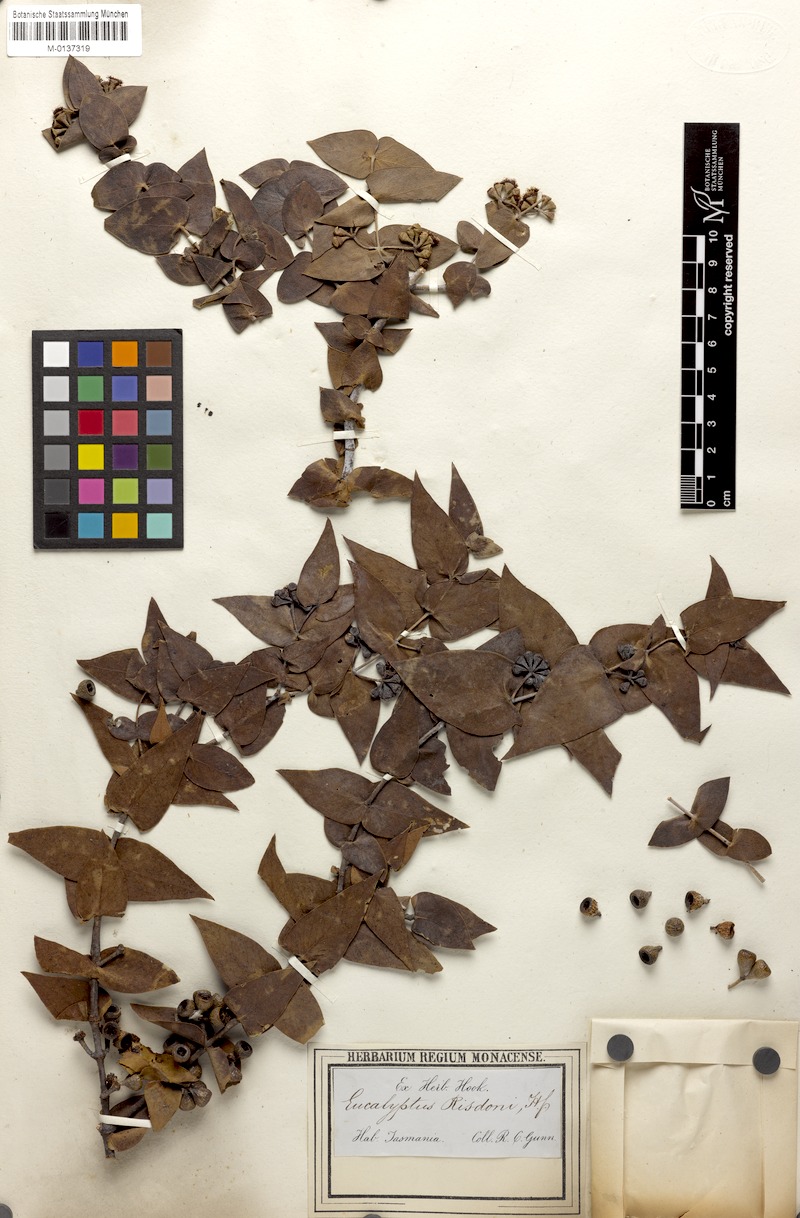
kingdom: Plantae
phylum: Tracheophyta
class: Magnoliopsida
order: Myrtales
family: Myrtaceae
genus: Eucalyptus
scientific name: Eucalyptus risdoni
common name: Risdon peppermint
